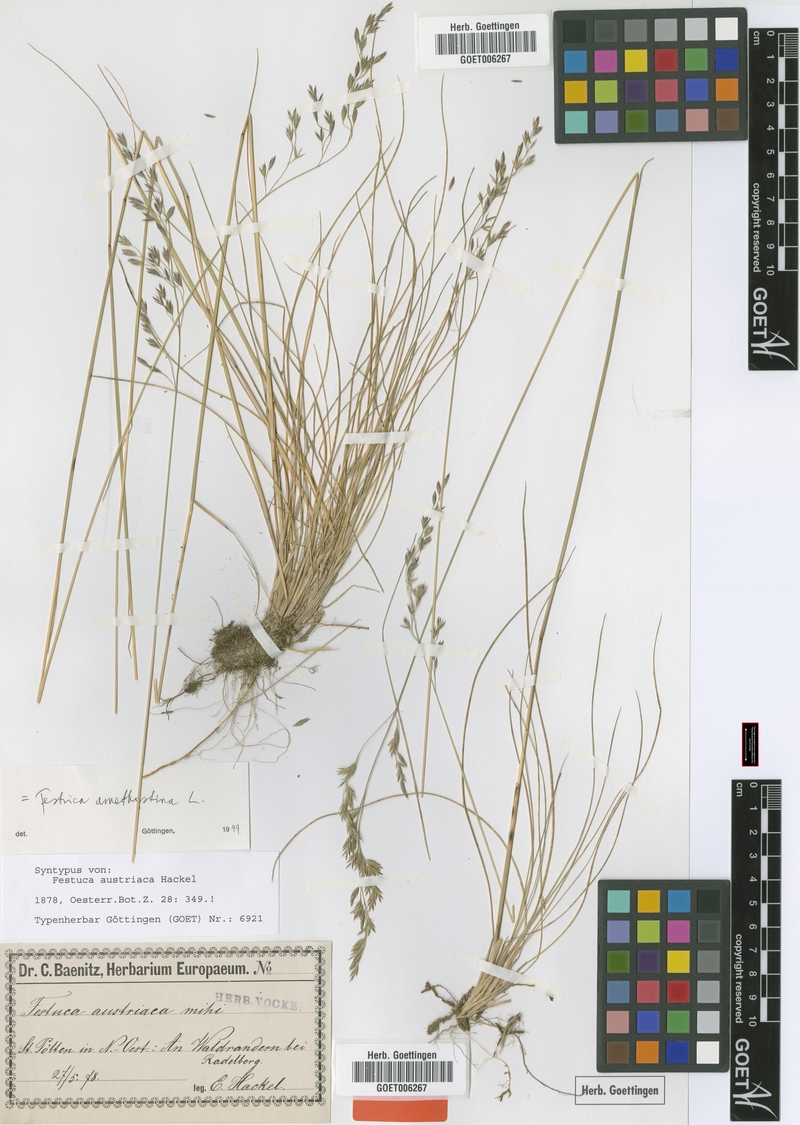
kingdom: Plantae
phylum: Tracheophyta
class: Liliopsida
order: Poales
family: Poaceae
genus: Festuca
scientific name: Festuca amethystina
